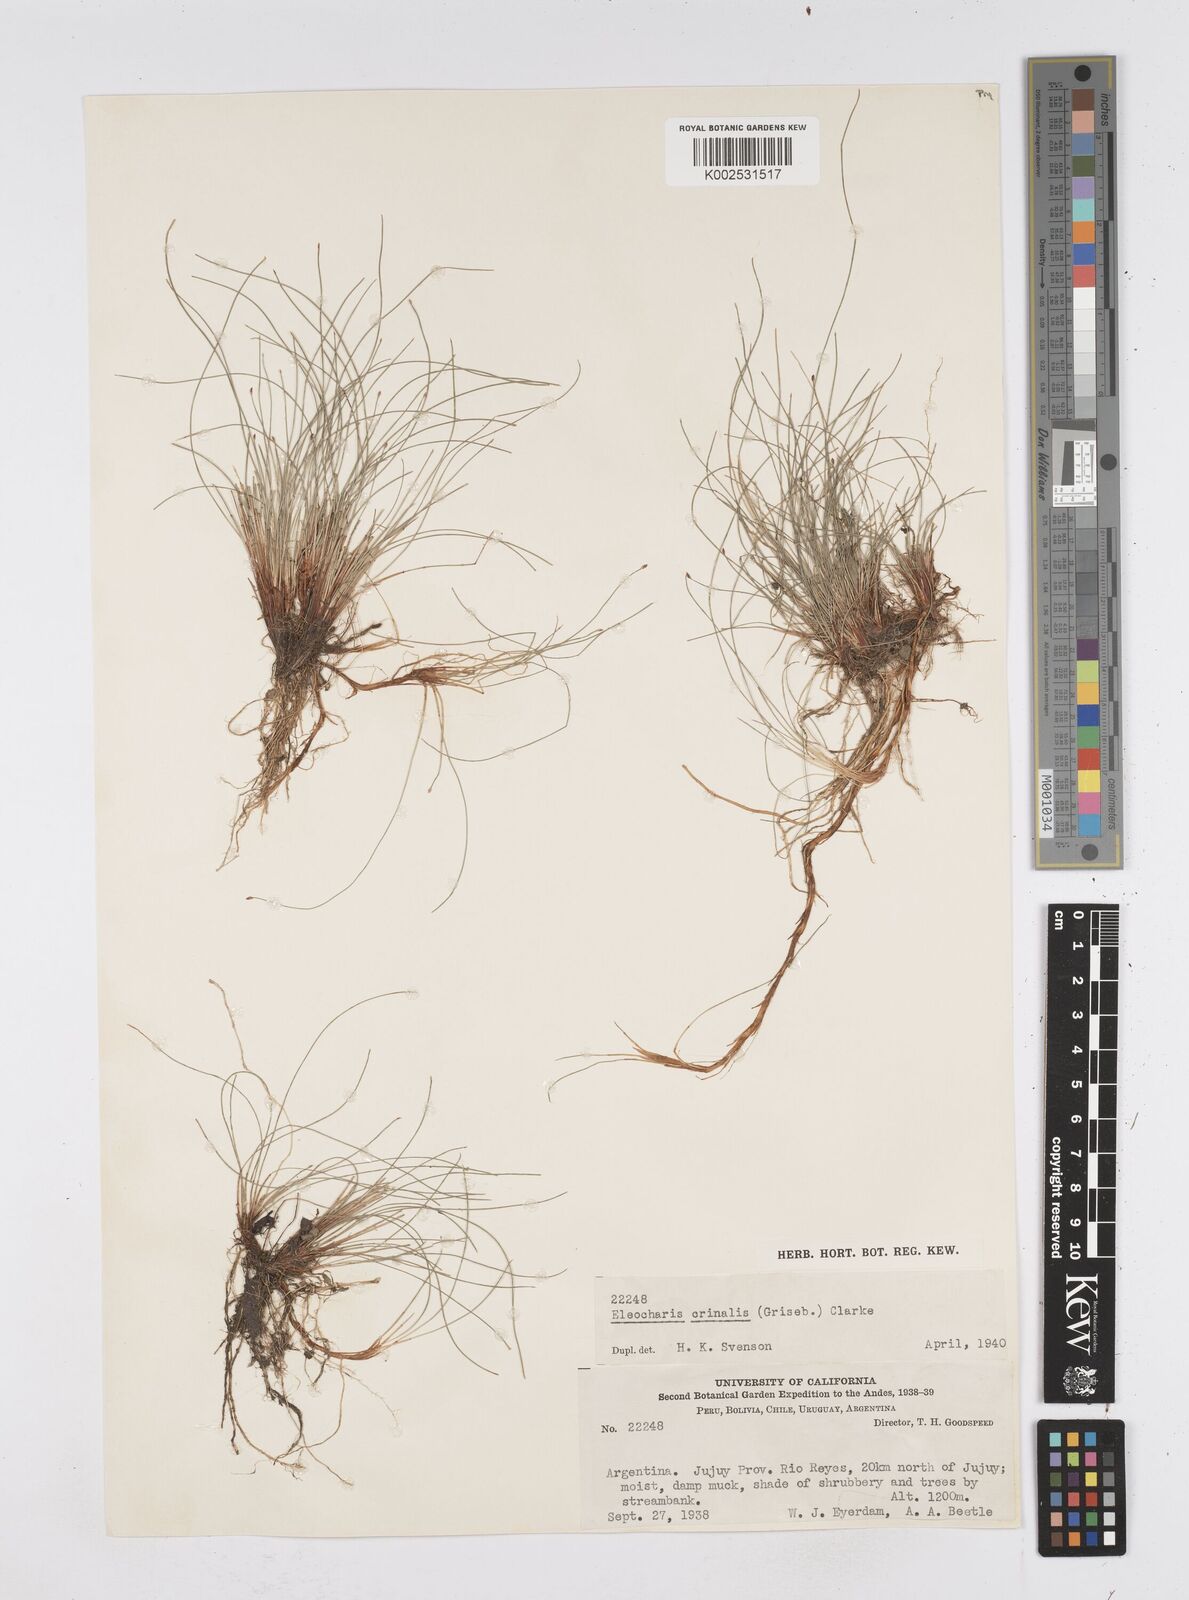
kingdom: Plantae
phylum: Tracheophyta
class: Liliopsida
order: Poales
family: Cyperaceae
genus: Eleocharis
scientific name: Eleocharis crinalis
